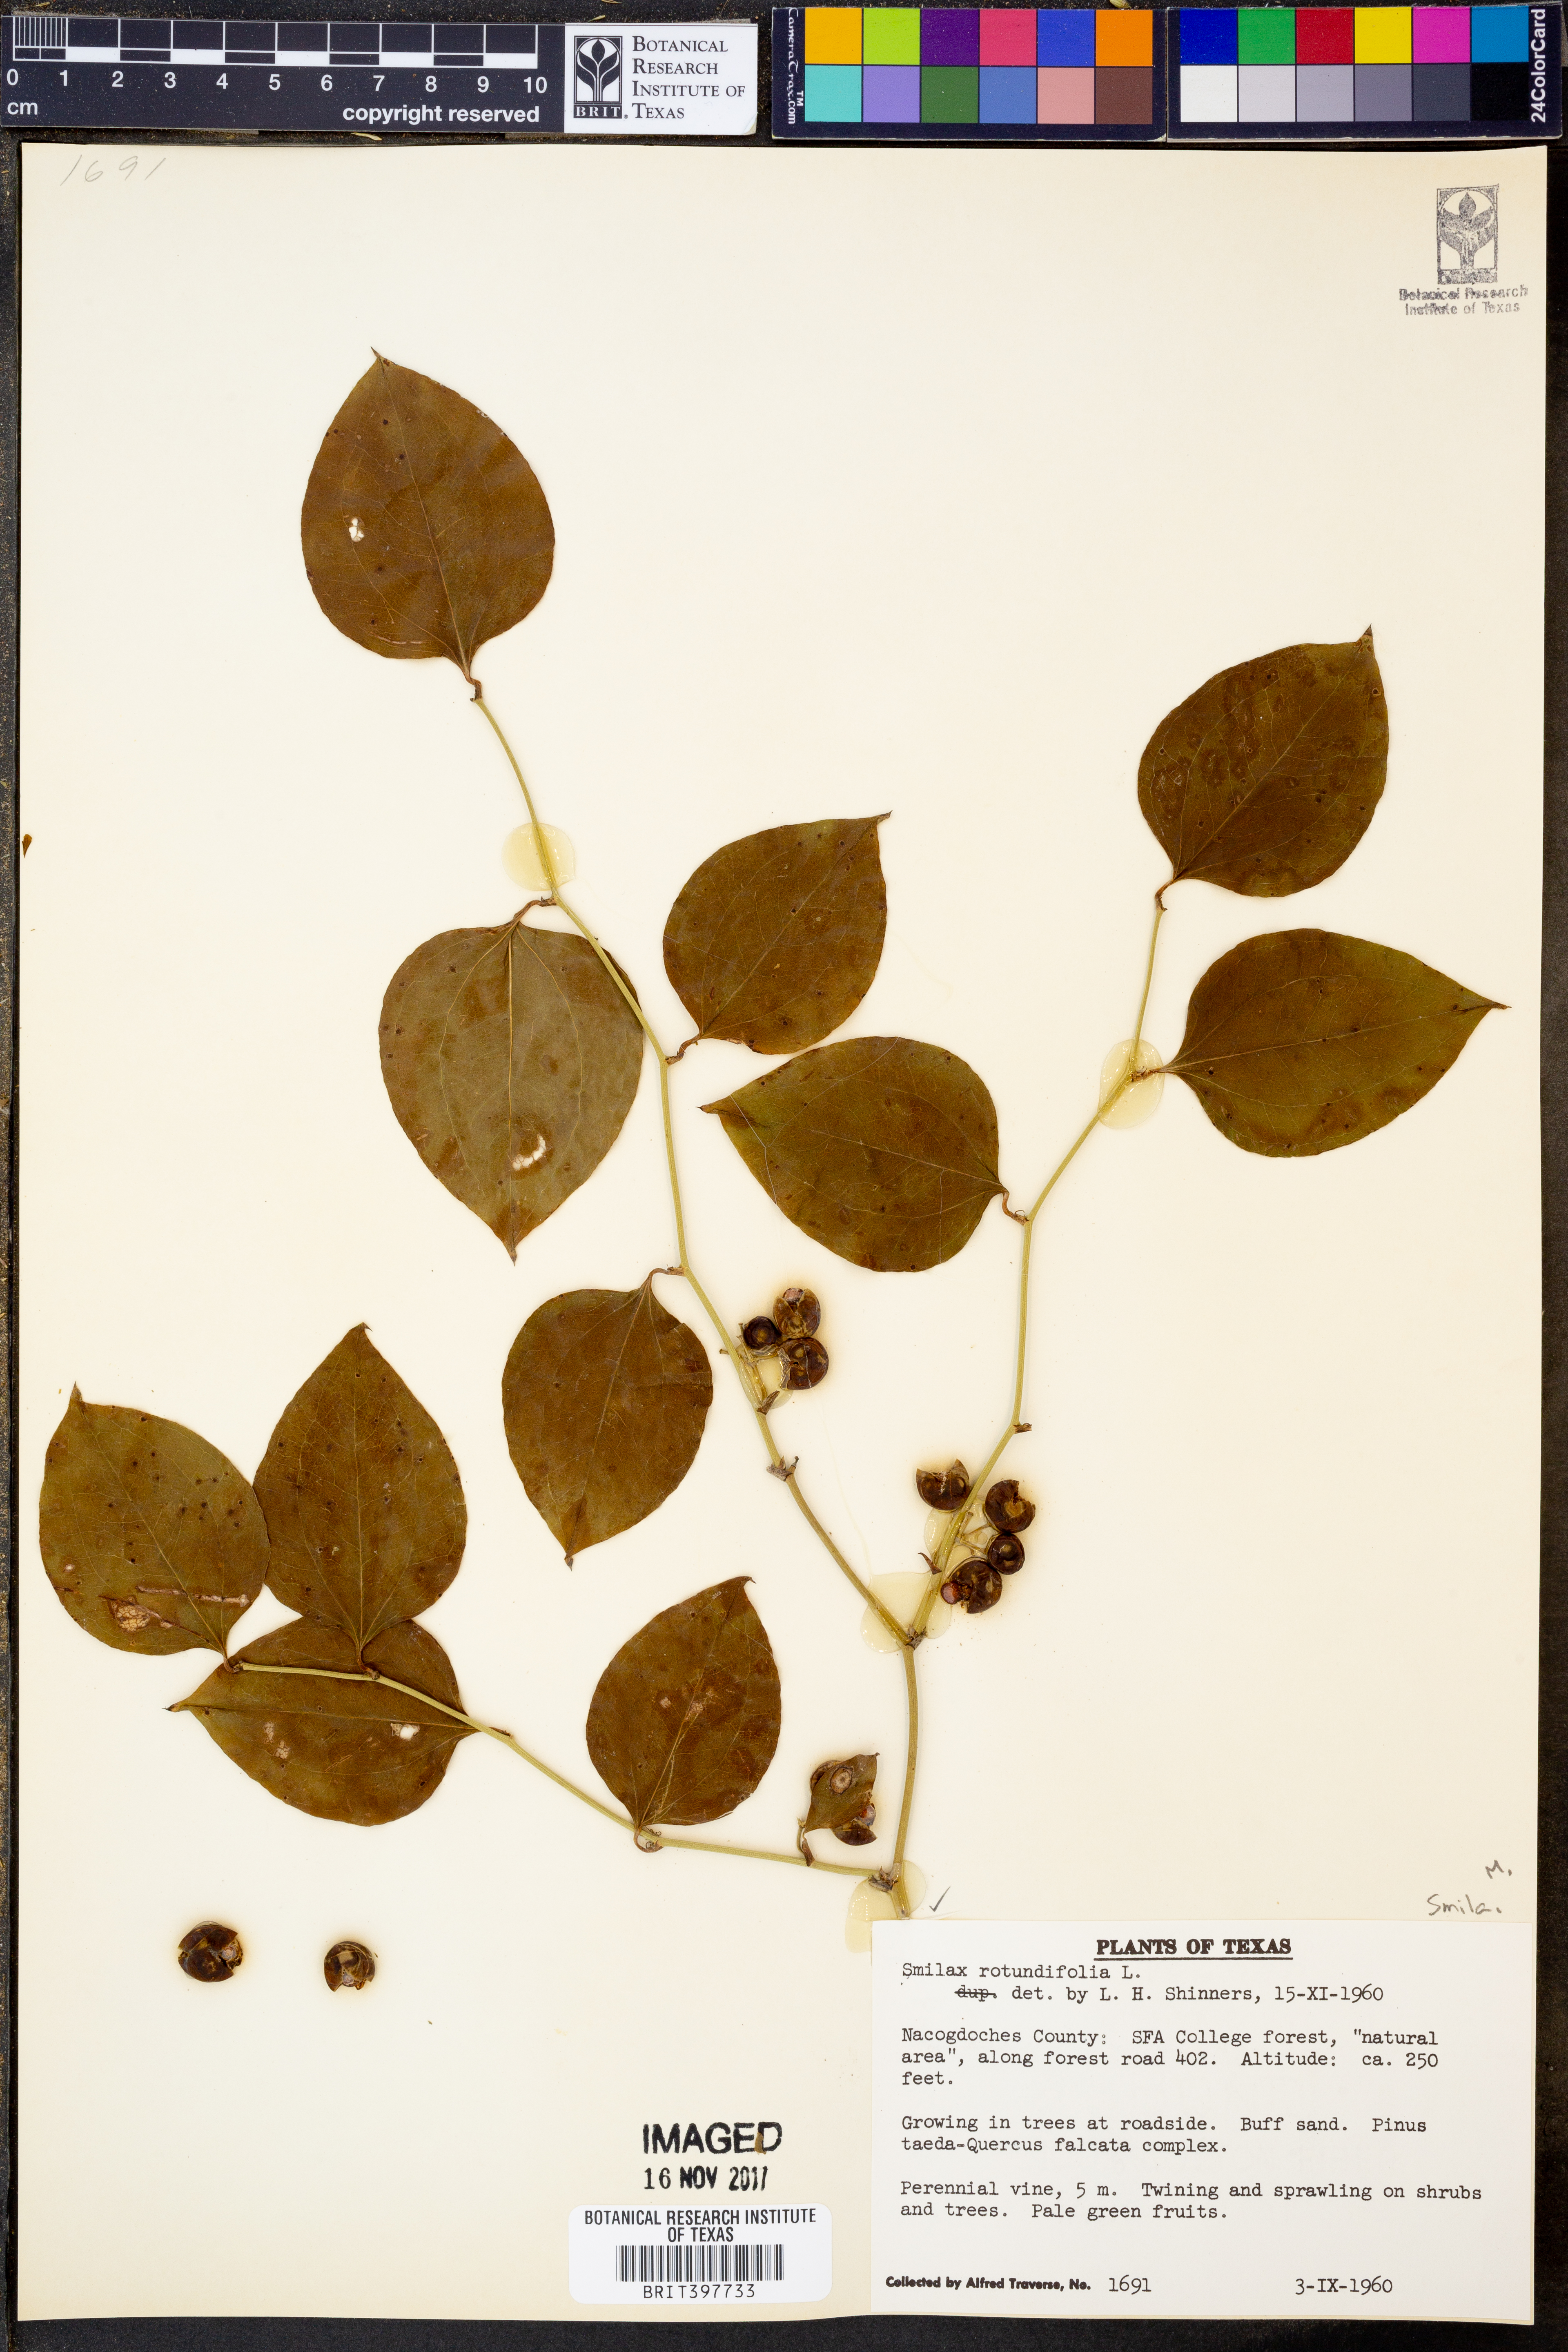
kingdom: Plantae
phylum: Tracheophyta
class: Liliopsida
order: Liliales
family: Smilacaceae
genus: Smilax
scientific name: Smilax rotundifolia
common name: Bullbriar
